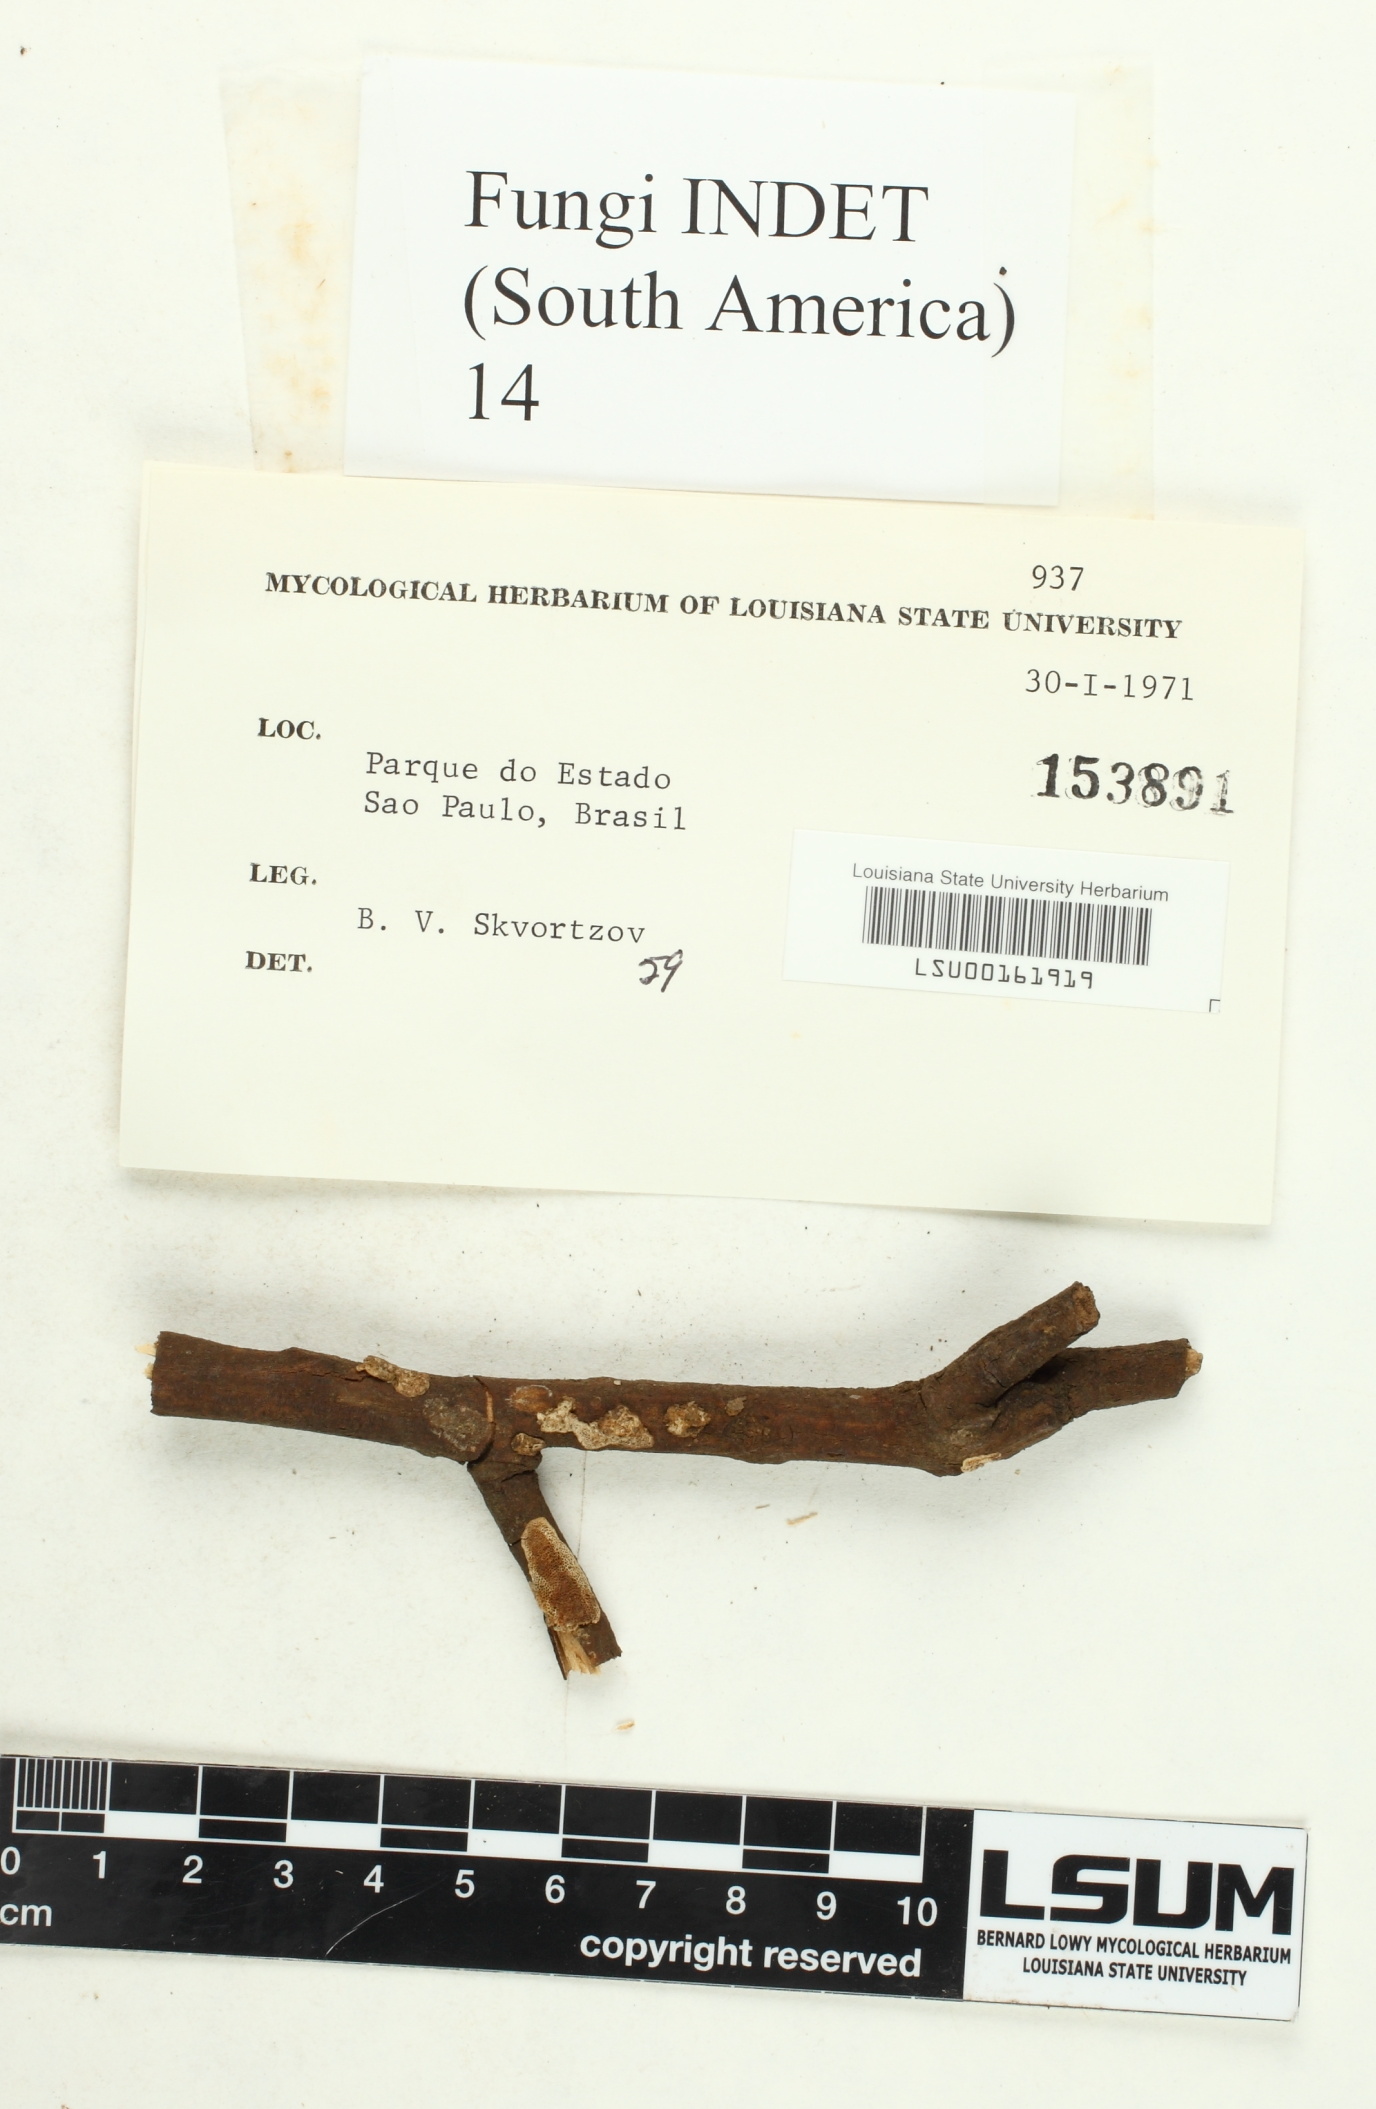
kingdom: Fungi
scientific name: Fungi
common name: Fungi
